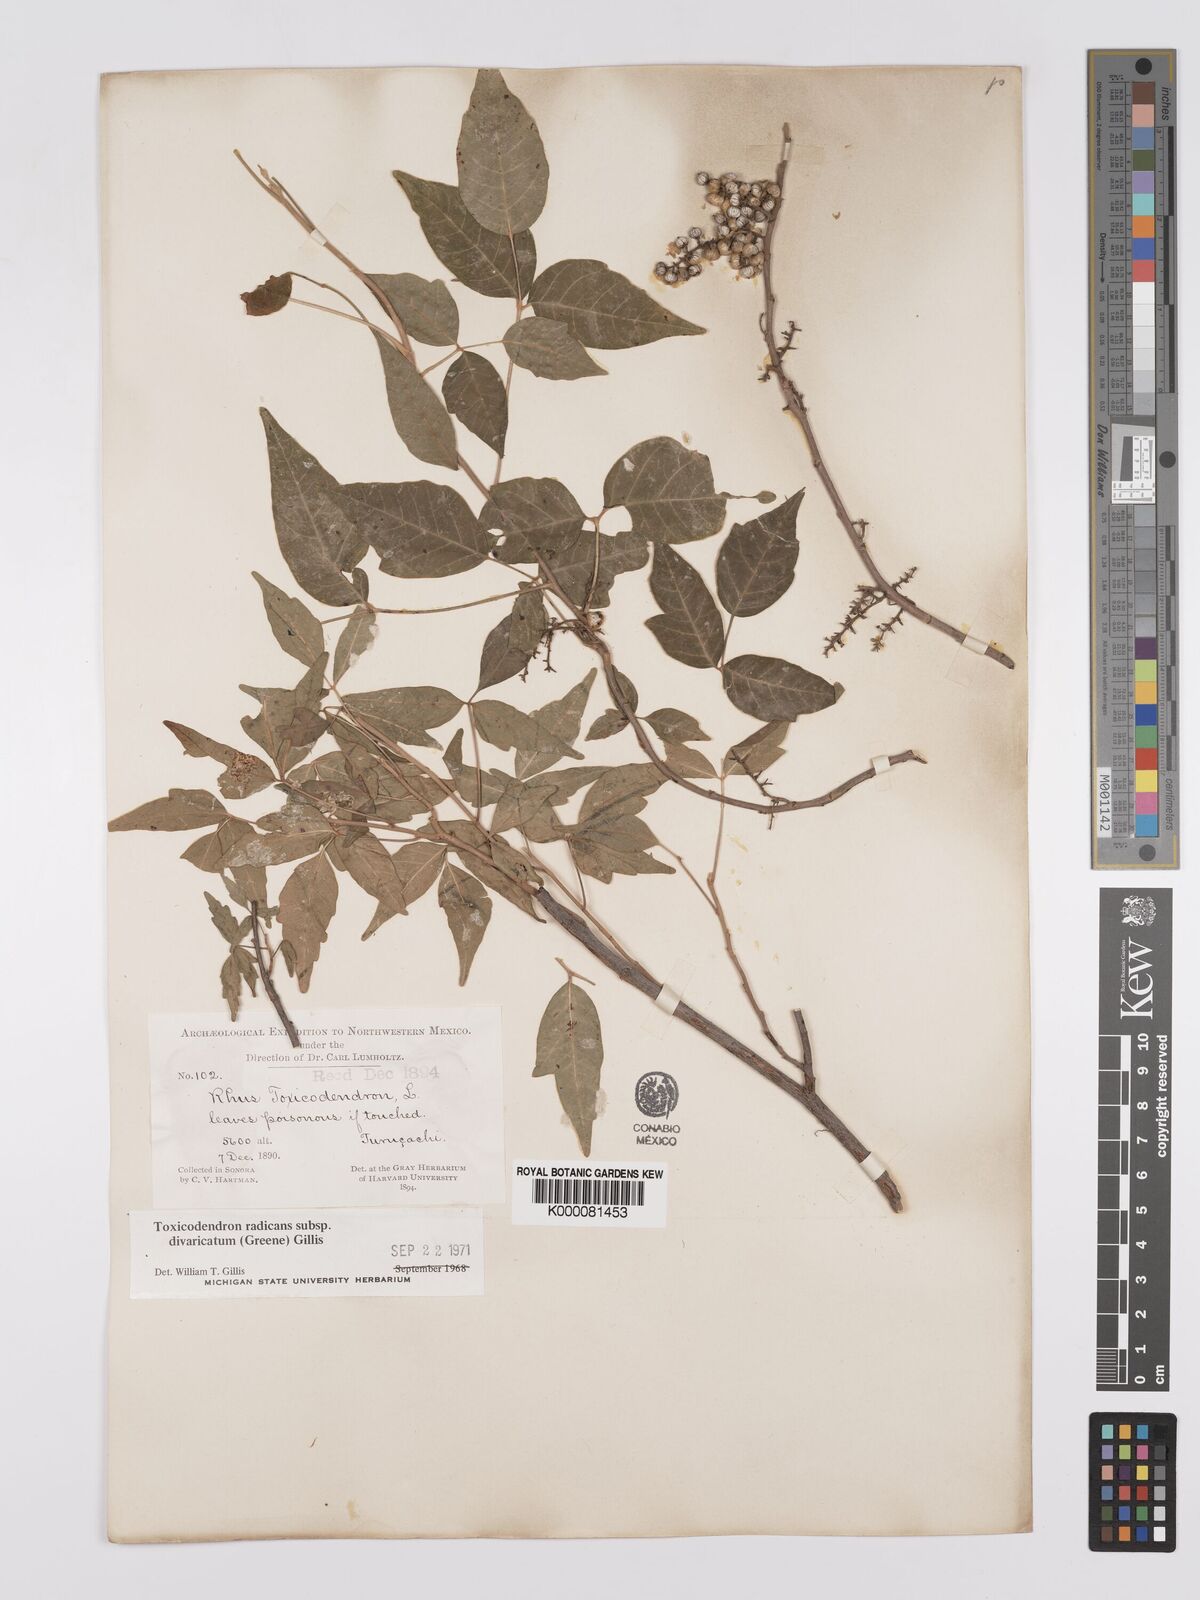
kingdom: Plantae
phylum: Tracheophyta
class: Magnoliopsida
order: Sapindales
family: Anacardiaceae
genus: Toxicodendron
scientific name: Toxicodendron radicans
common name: Poison ivy
